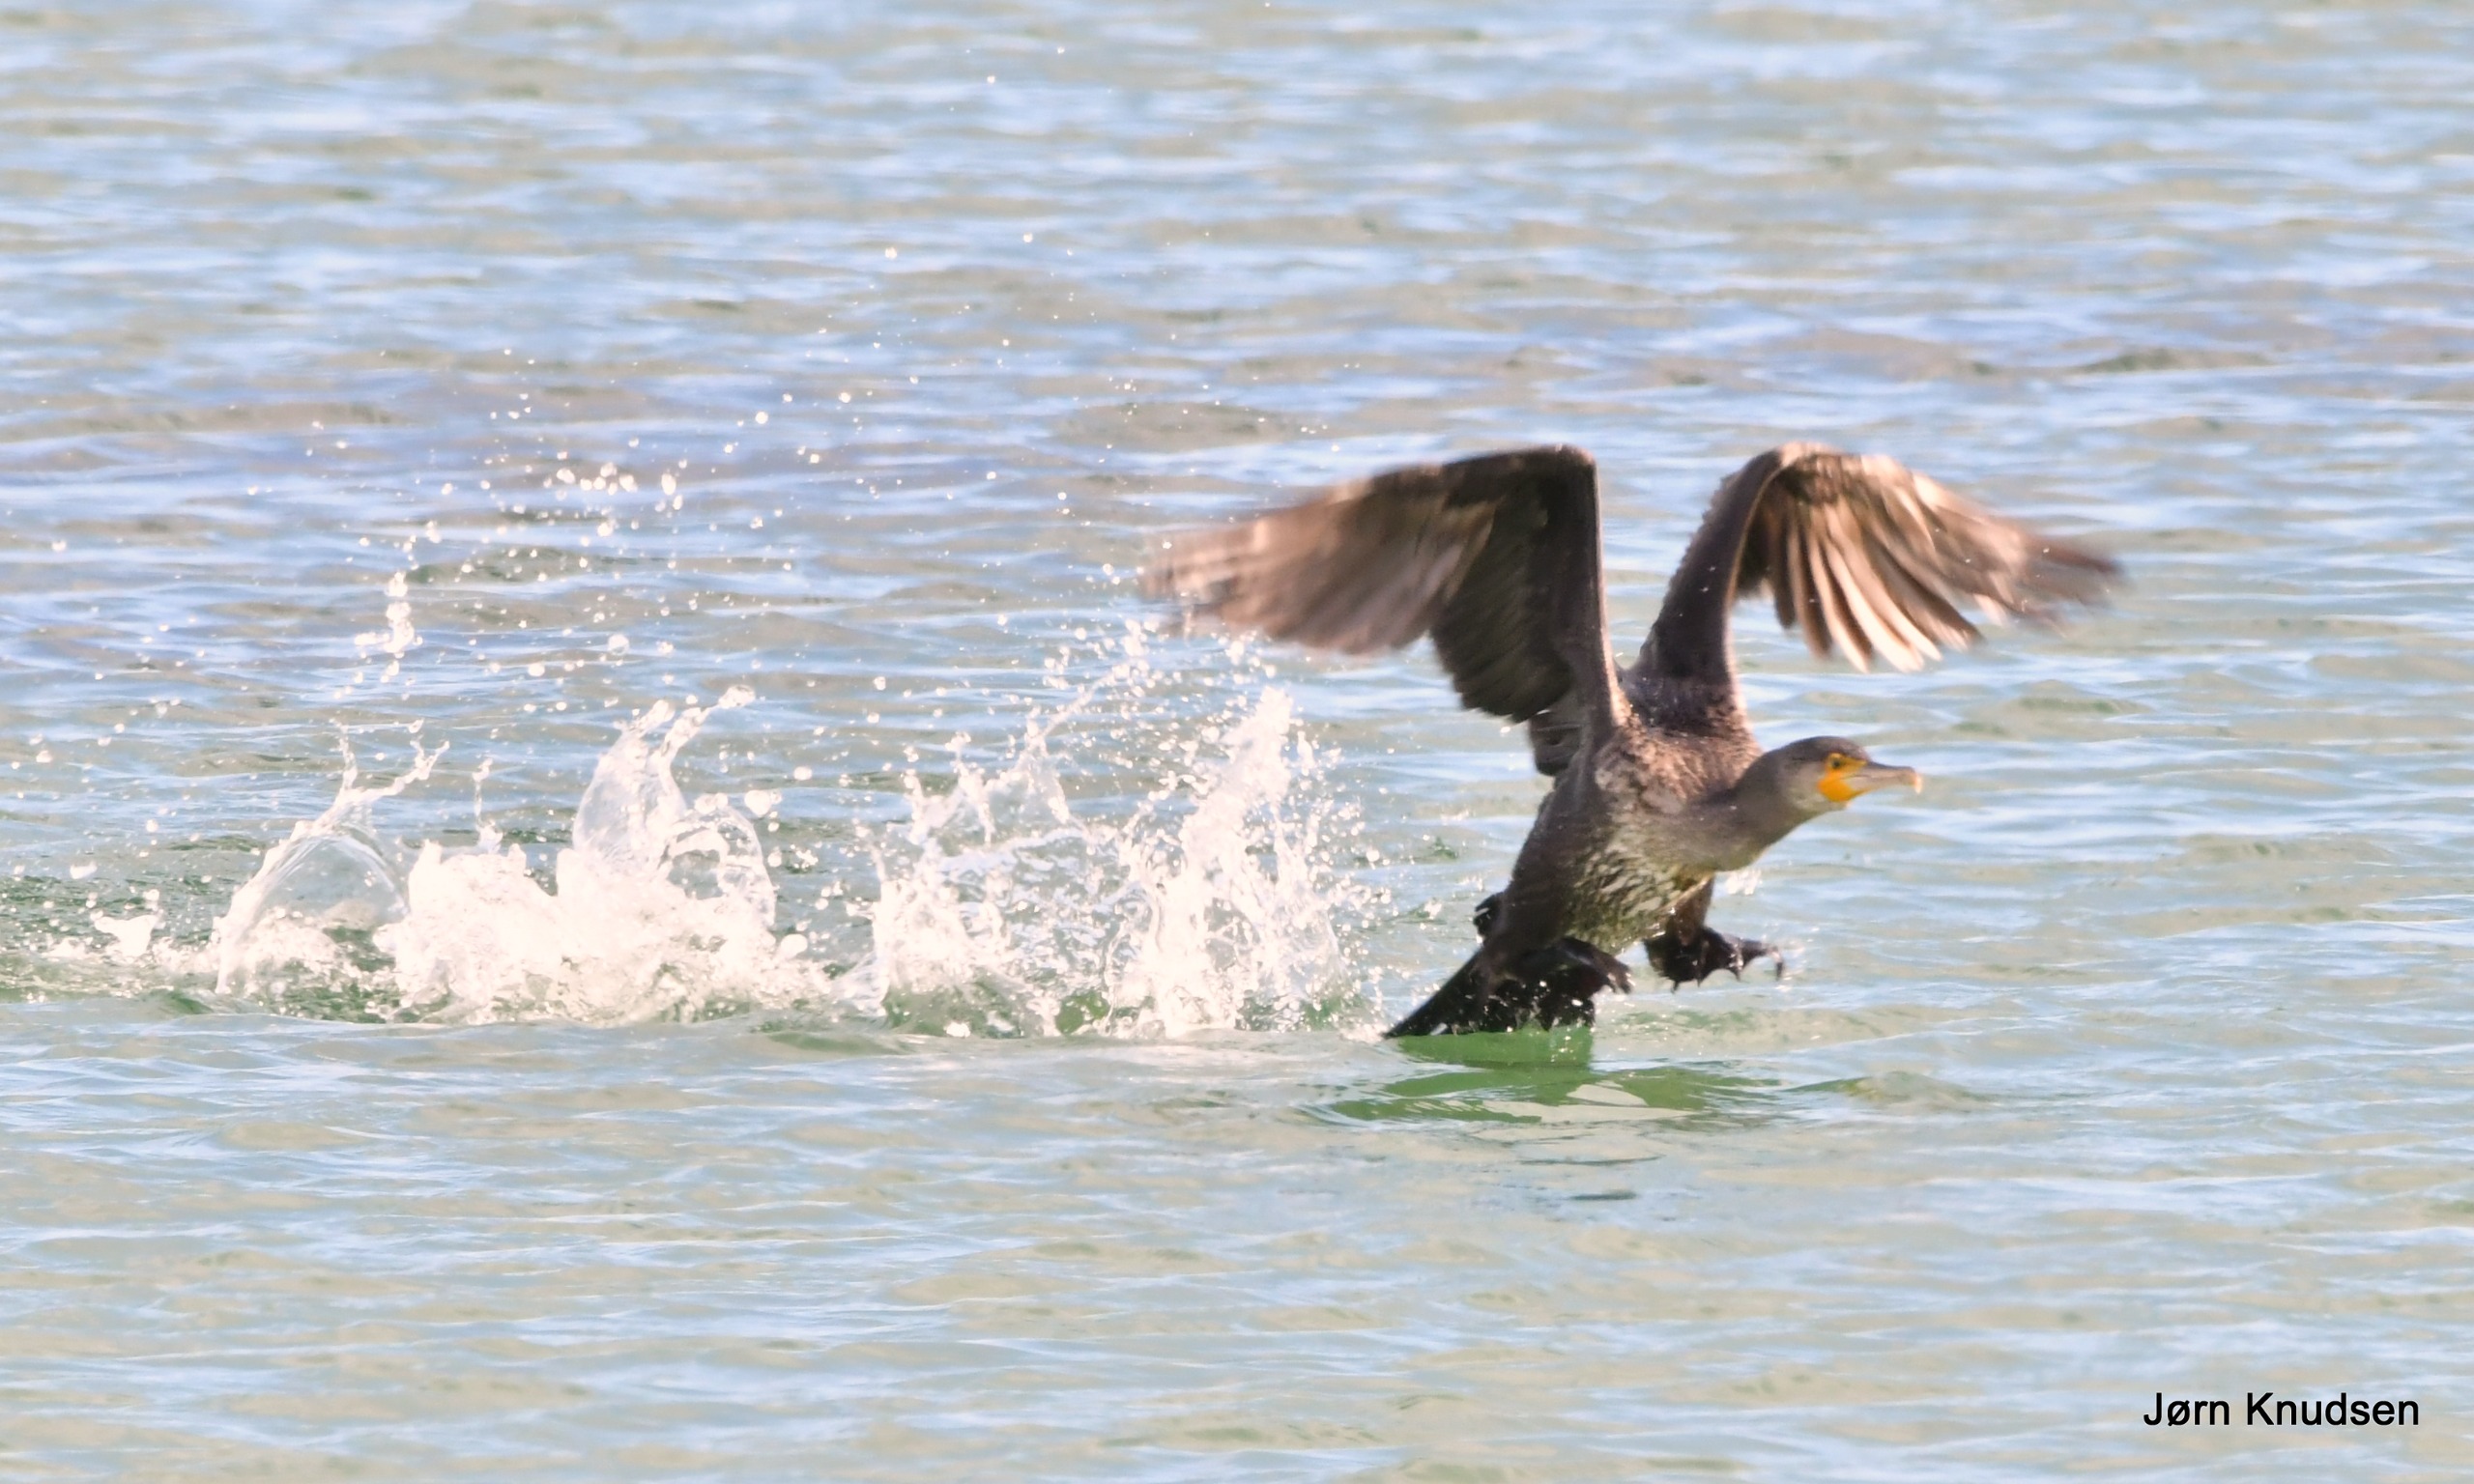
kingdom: Animalia
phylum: Chordata
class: Aves
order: Suliformes
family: Phalacrocoracidae
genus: Phalacrocorax
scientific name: Phalacrocorax carbo
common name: Skarv
